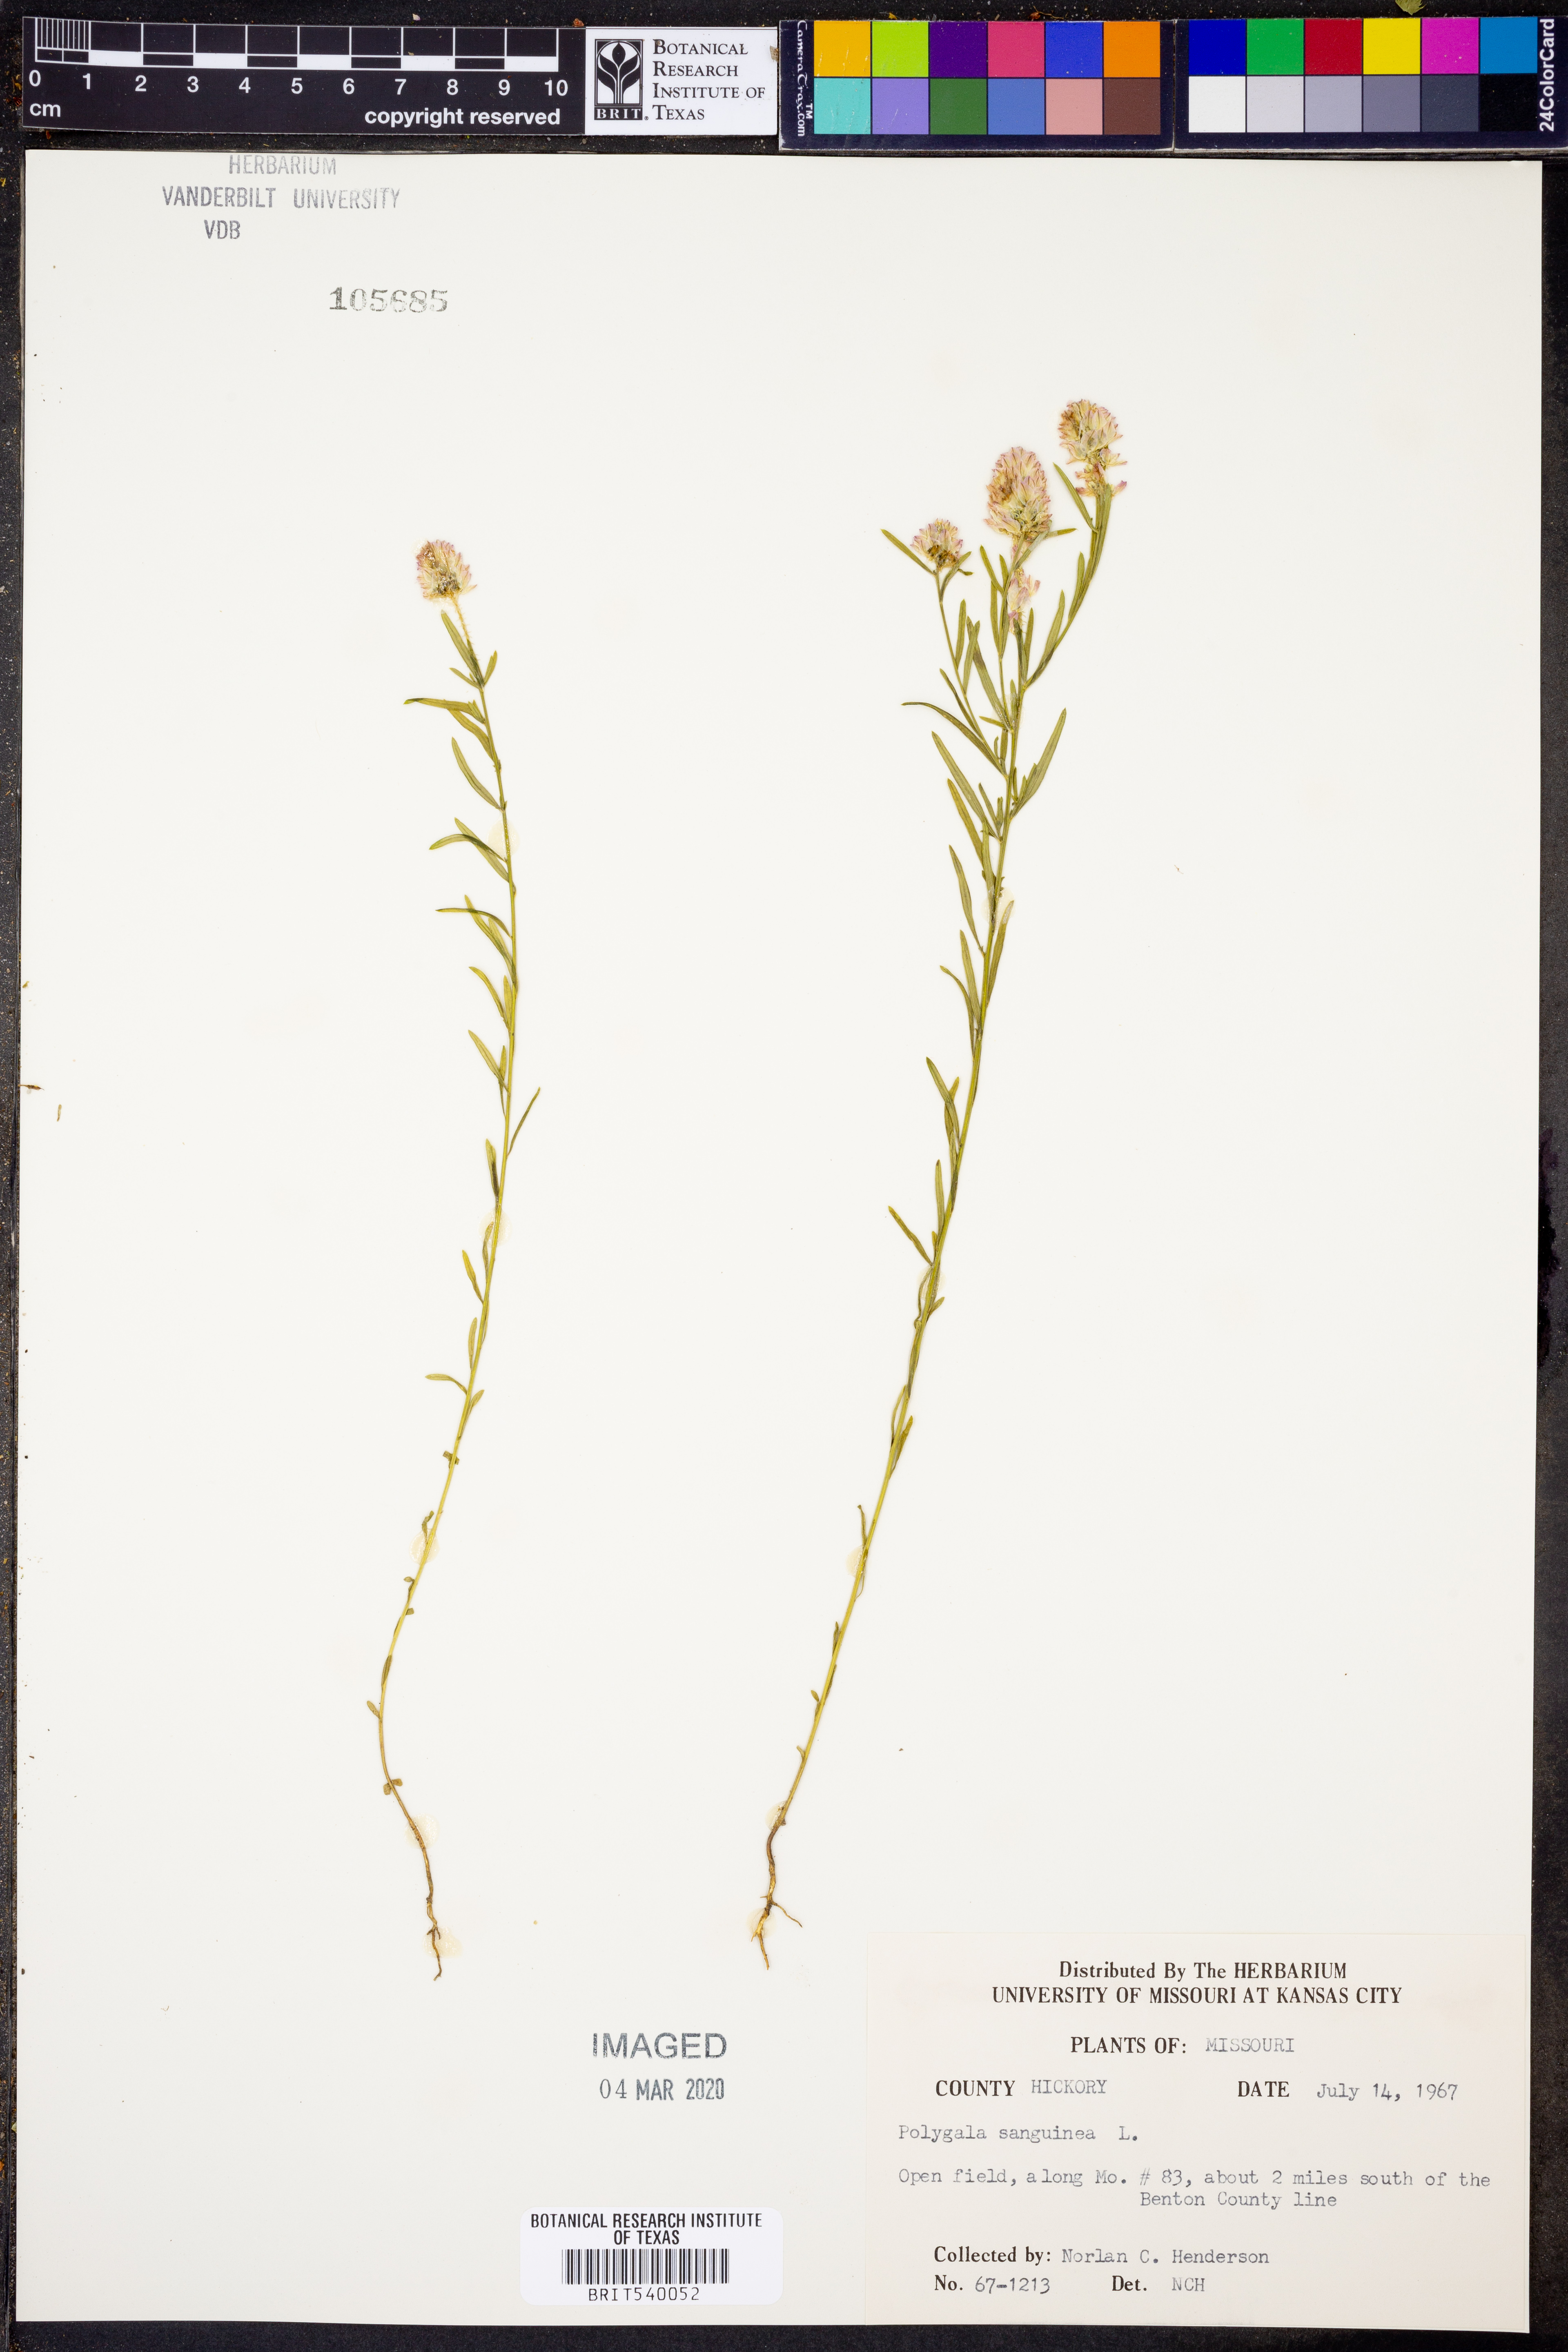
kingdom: Plantae
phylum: Tracheophyta
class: Magnoliopsida
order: Fabales
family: Polygalaceae
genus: Polygala
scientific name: Polygala sanguinea
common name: Blood milkwort
